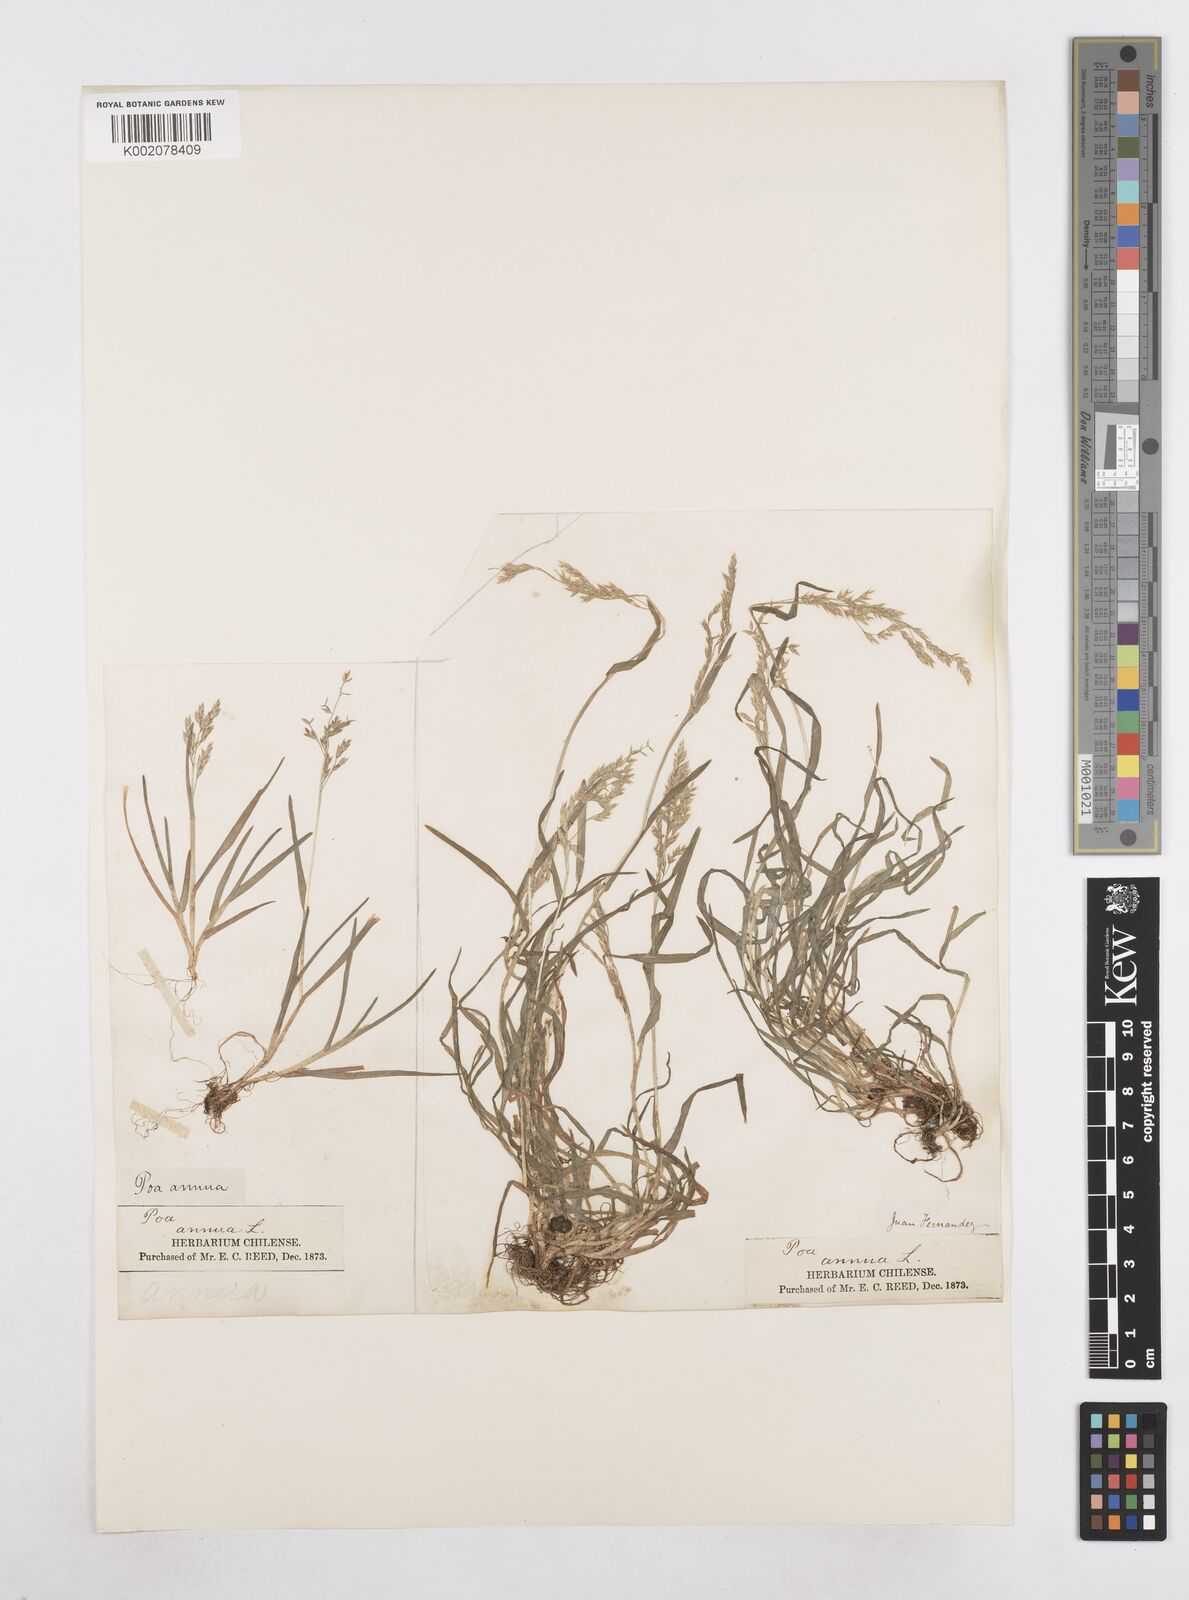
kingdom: Plantae
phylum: Tracheophyta
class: Liliopsida
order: Poales
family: Poaceae
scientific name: Poaceae
